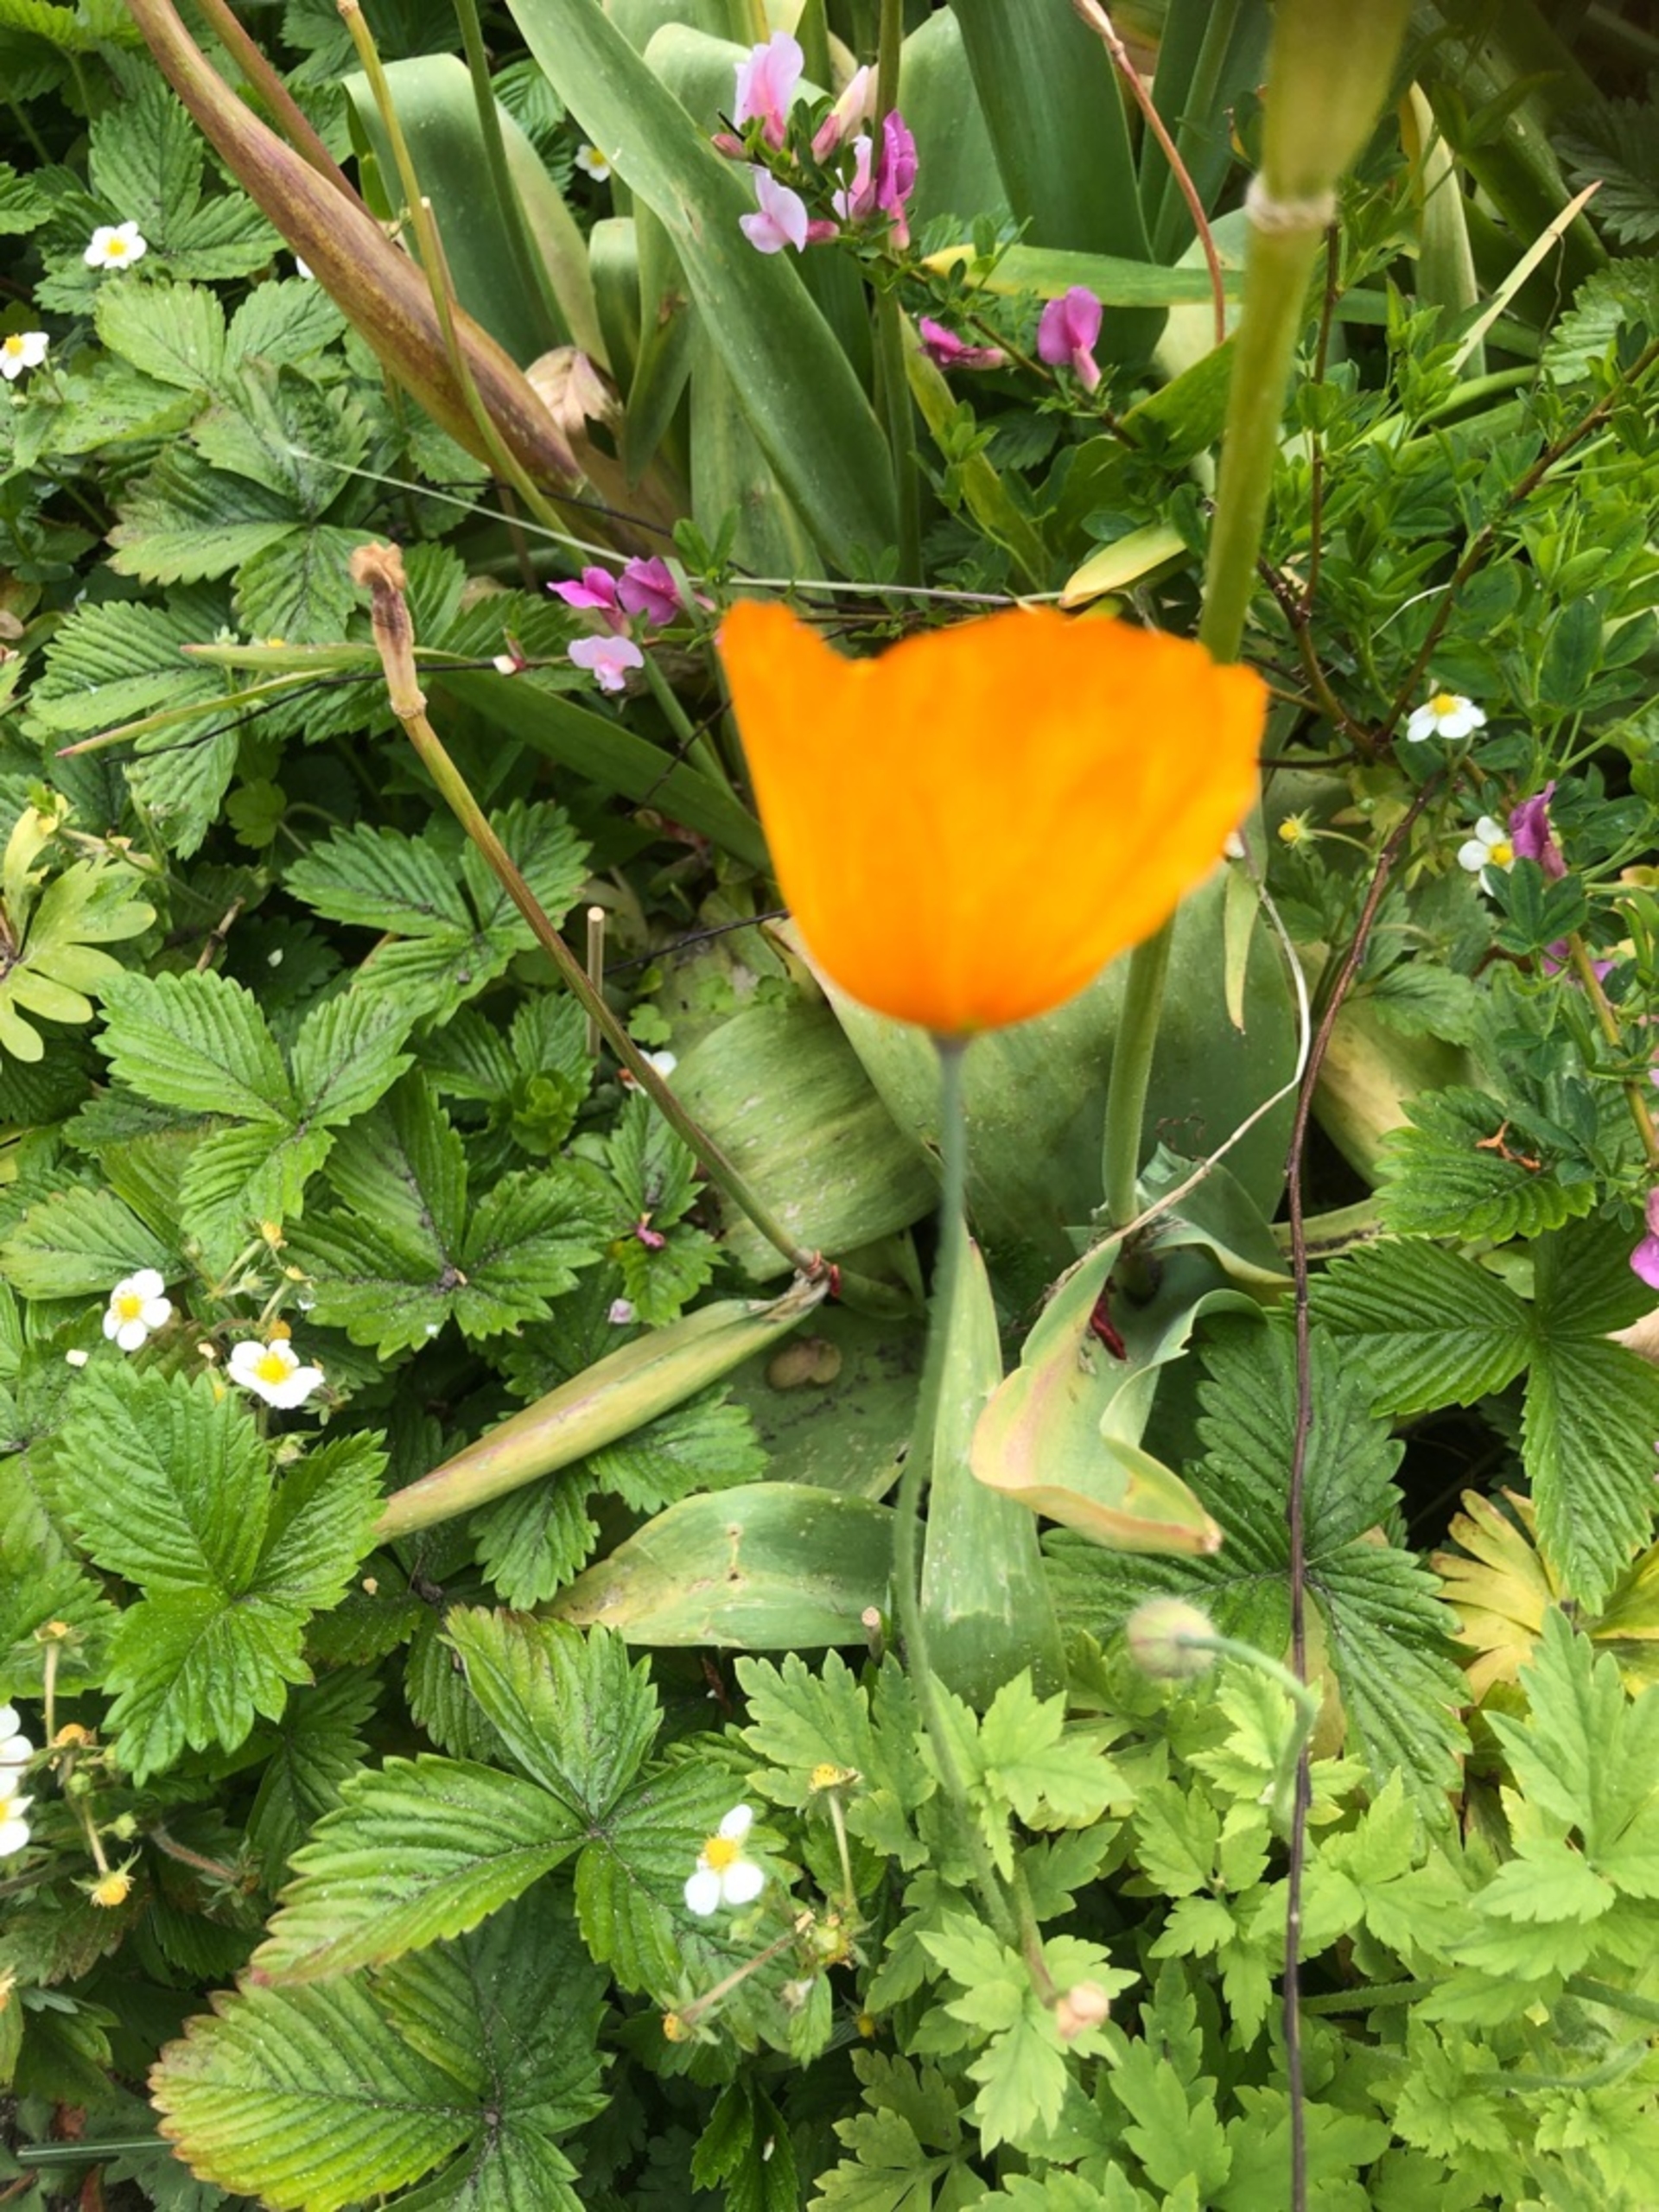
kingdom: Plantae
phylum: Tracheophyta
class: Magnoliopsida
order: Ranunculales
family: Papaveraceae
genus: Papaver
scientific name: Papaver cambricum
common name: Skov-valmue
